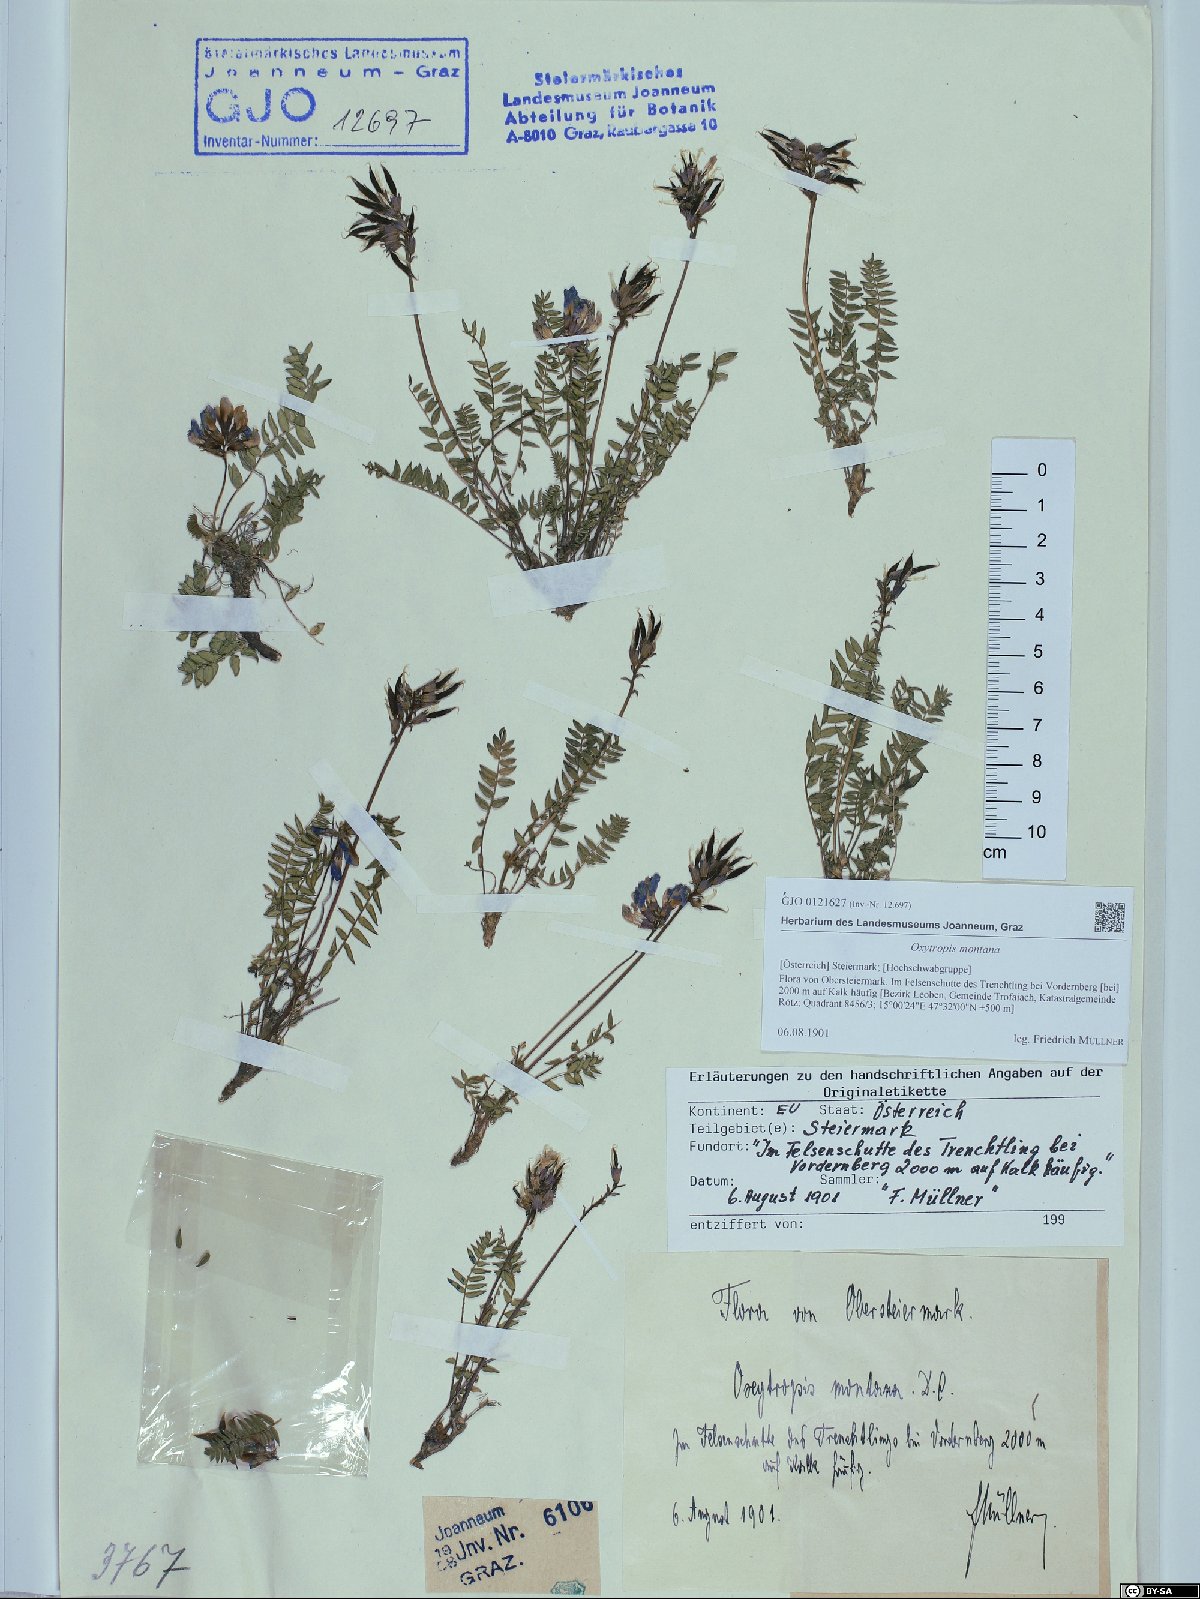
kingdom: Plantae
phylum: Tracheophyta
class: Magnoliopsida
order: Fabales
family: Fabaceae
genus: Oxytropis
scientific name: Oxytropis montana
